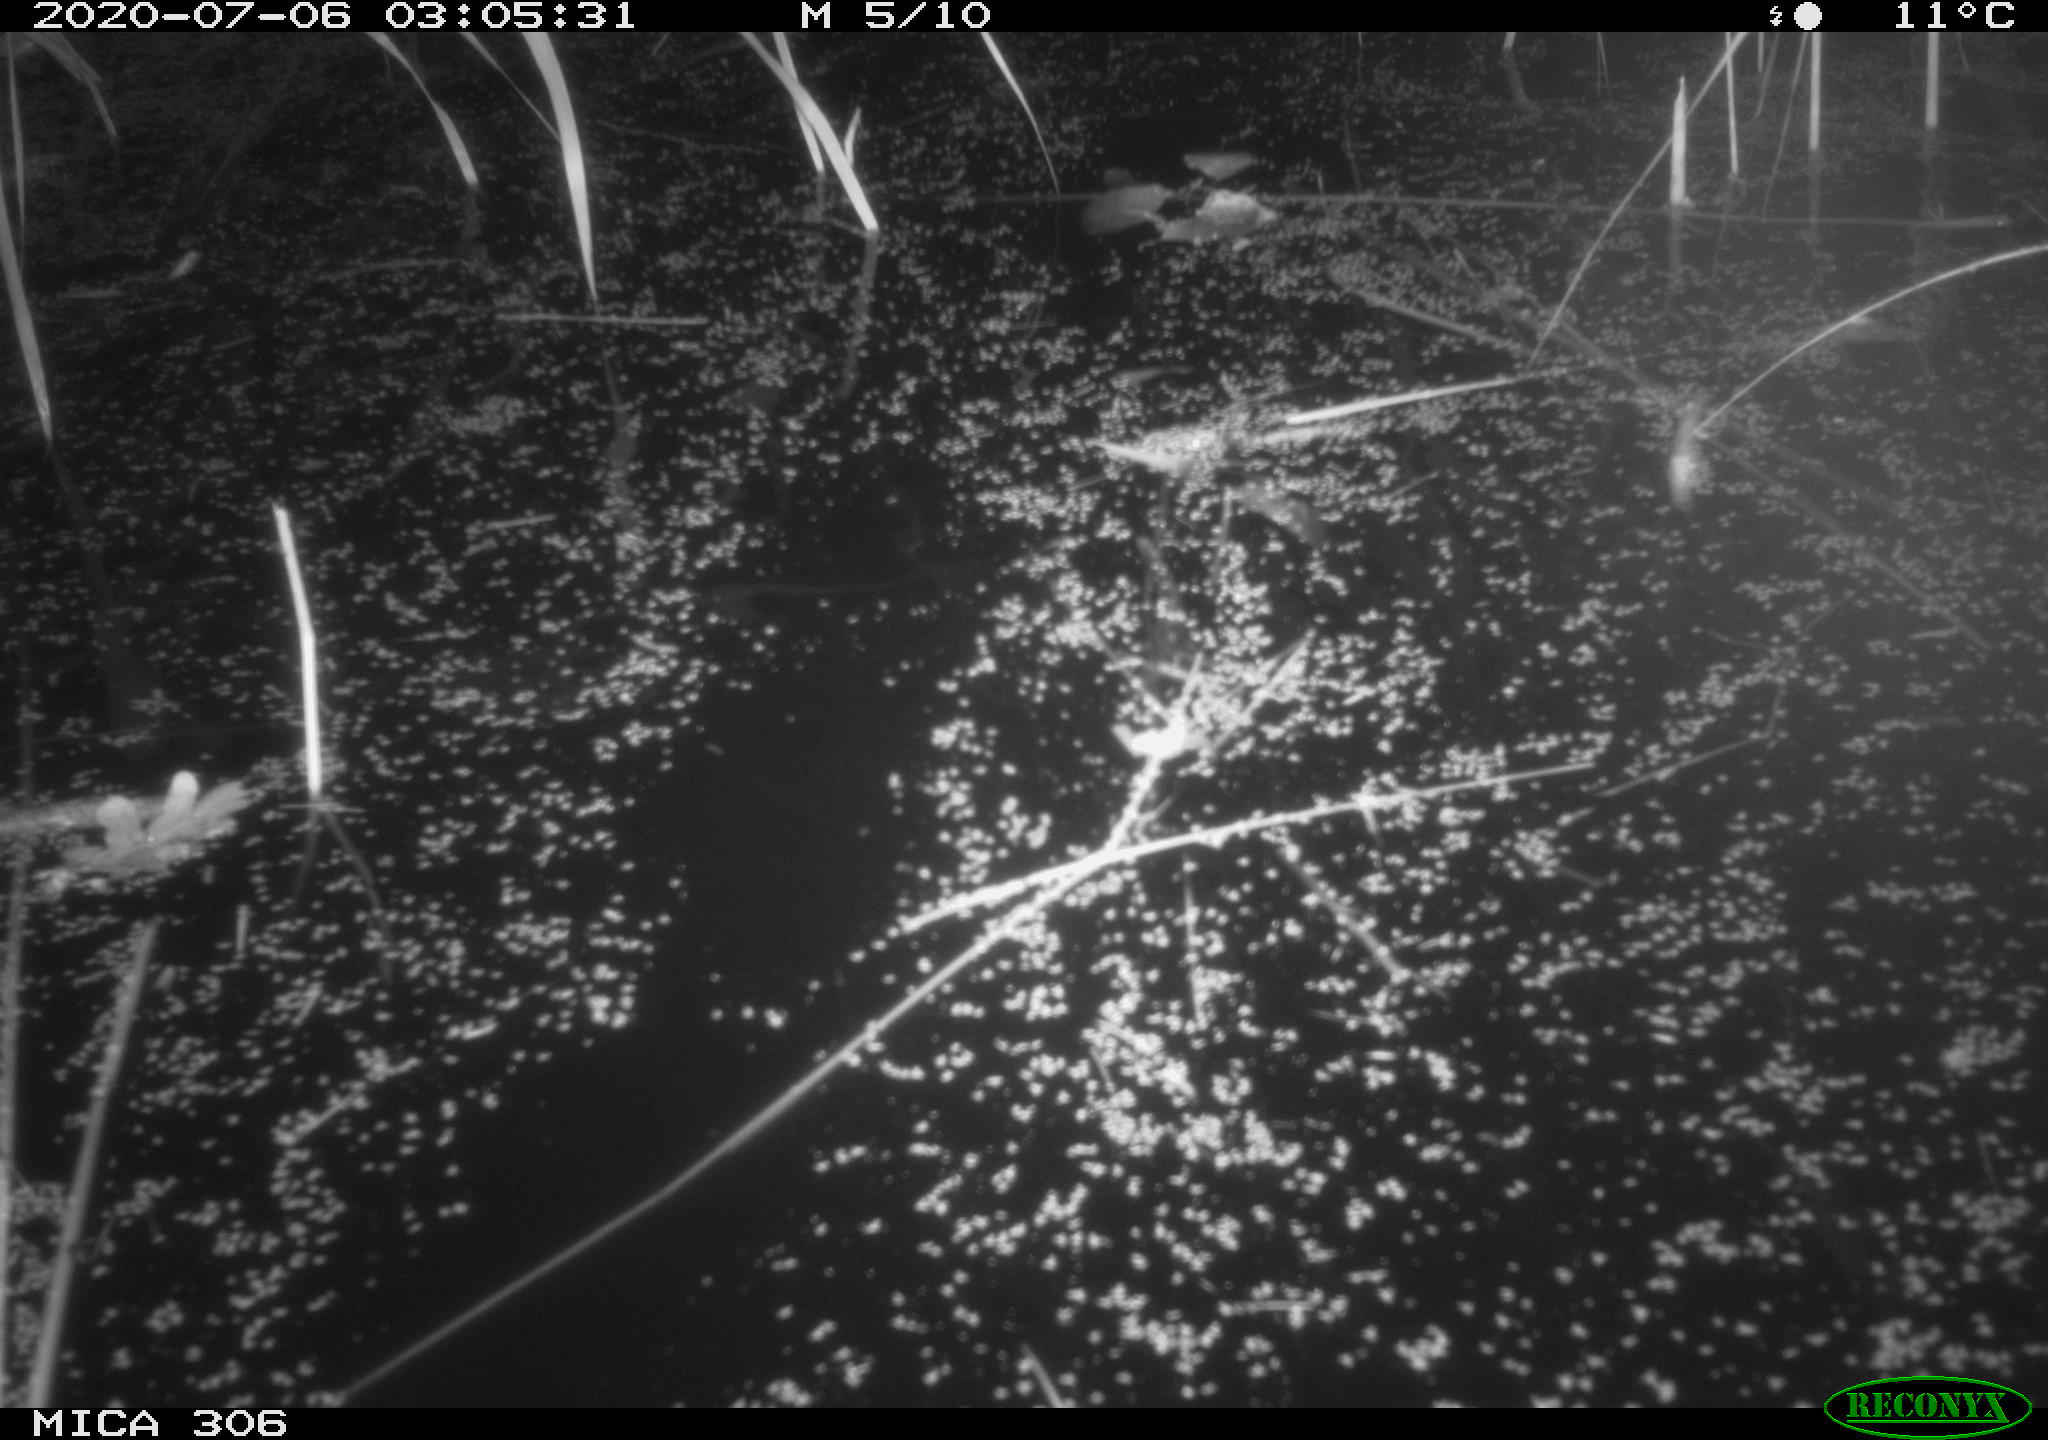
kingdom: Animalia
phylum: Chordata
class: Mammalia
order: Rodentia
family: Muridae
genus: Rattus
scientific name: Rattus norvegicus
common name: Brown rat
